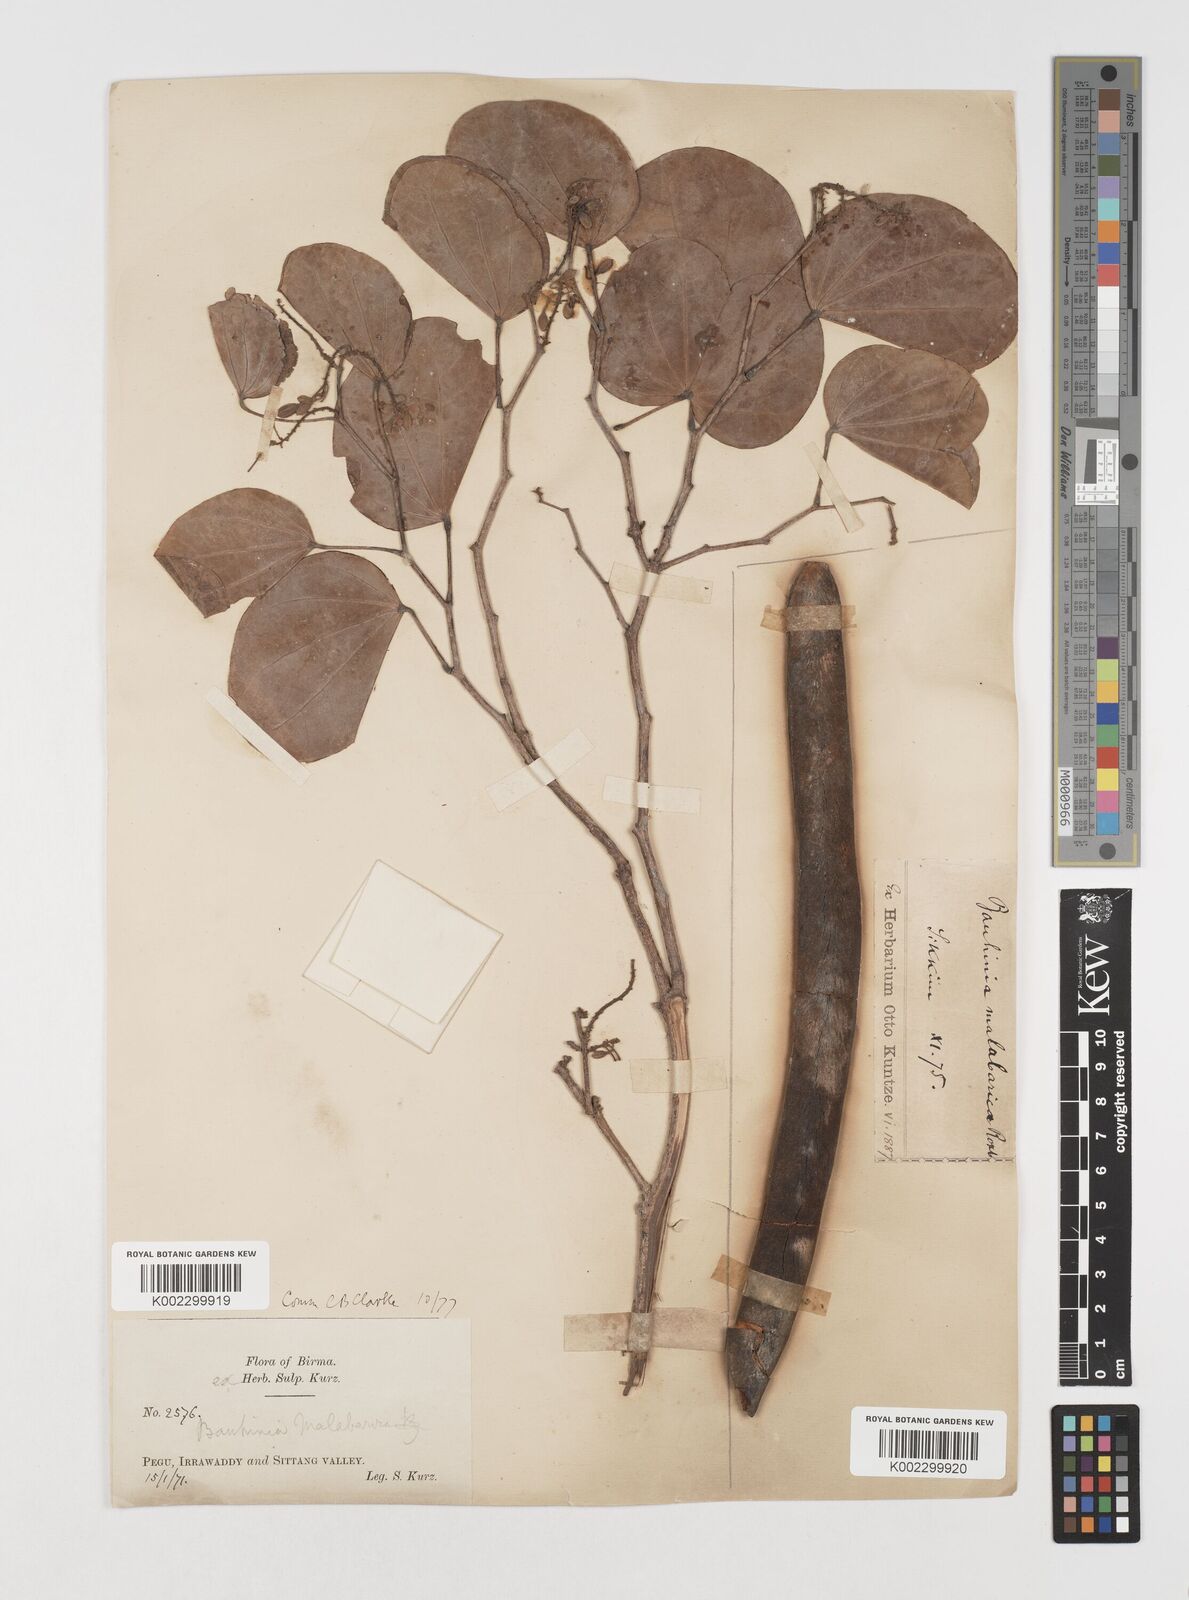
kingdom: Plantae
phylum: Tracheophyta
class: Magnoliopsida
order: Fabales
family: Fabaceae
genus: Piliostigma
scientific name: Piliostigma malabaricum
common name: Malabar bauhinia
